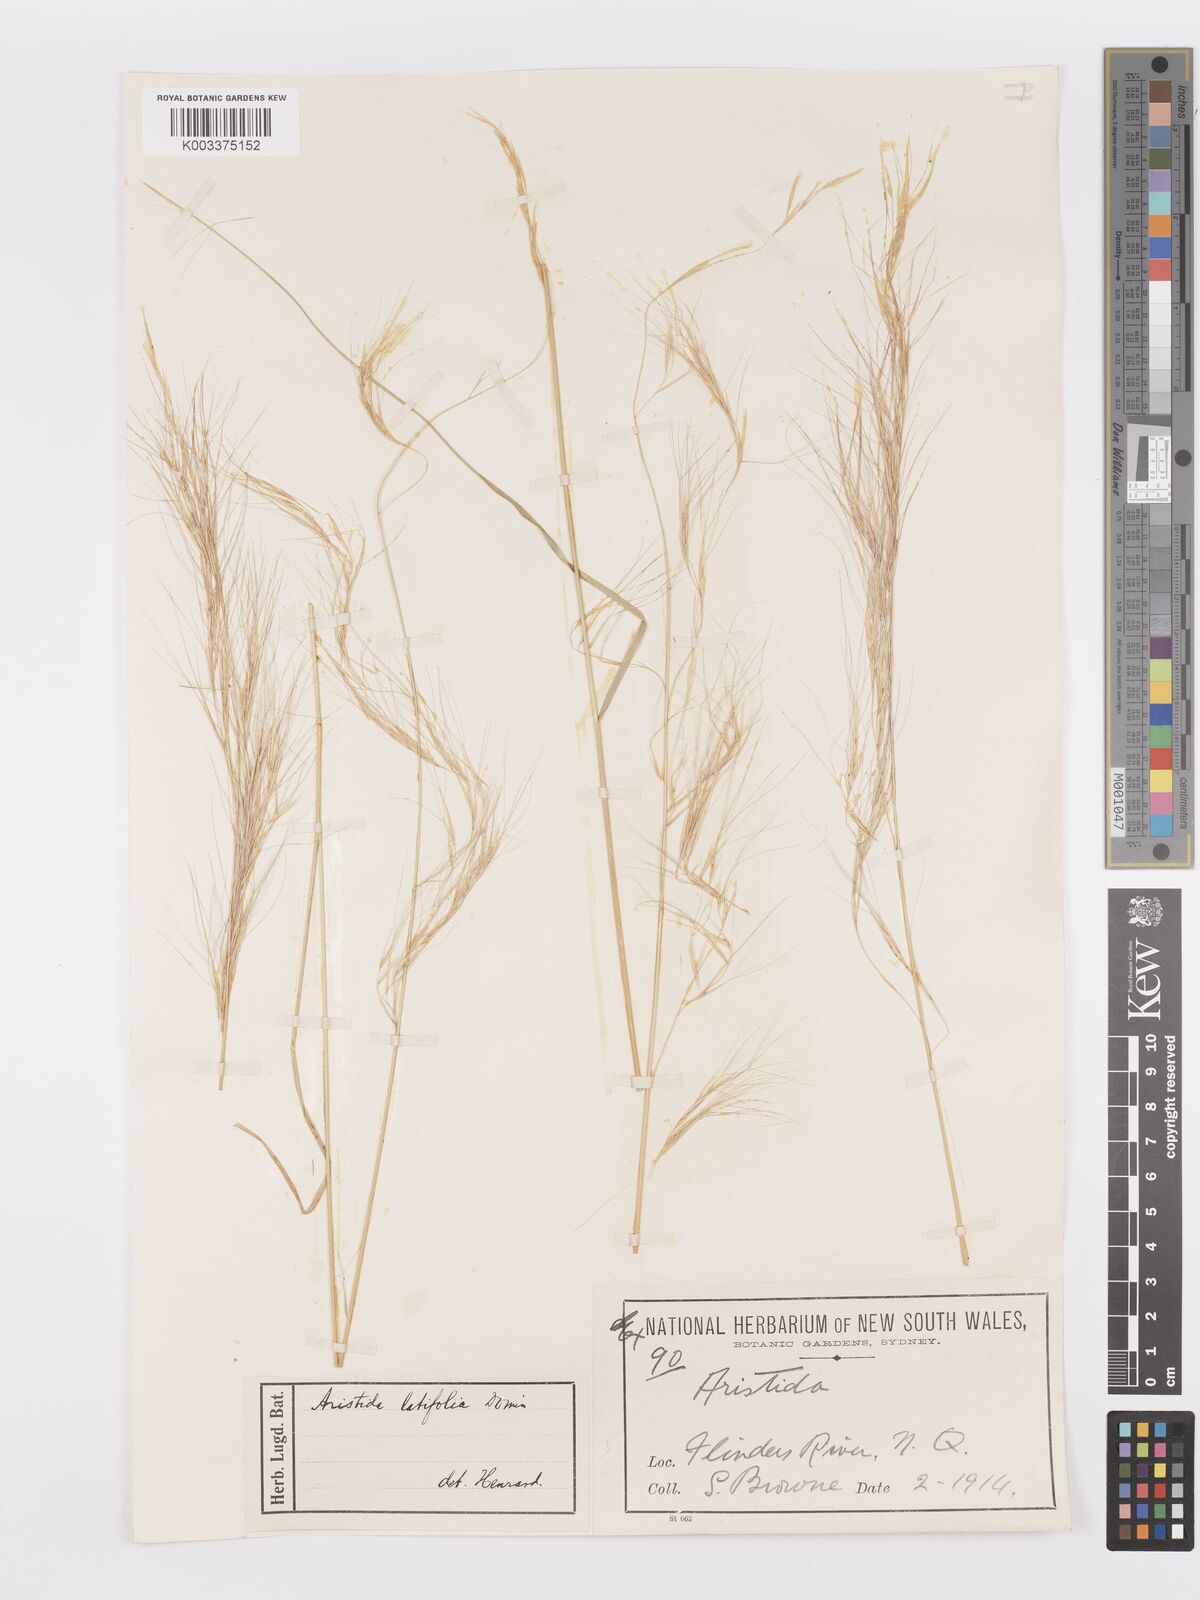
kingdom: Plantae
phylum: Tracheophyta
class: Liliopsida
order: Poales
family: Poaceae
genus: Aristida
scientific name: Aristida latifolia
